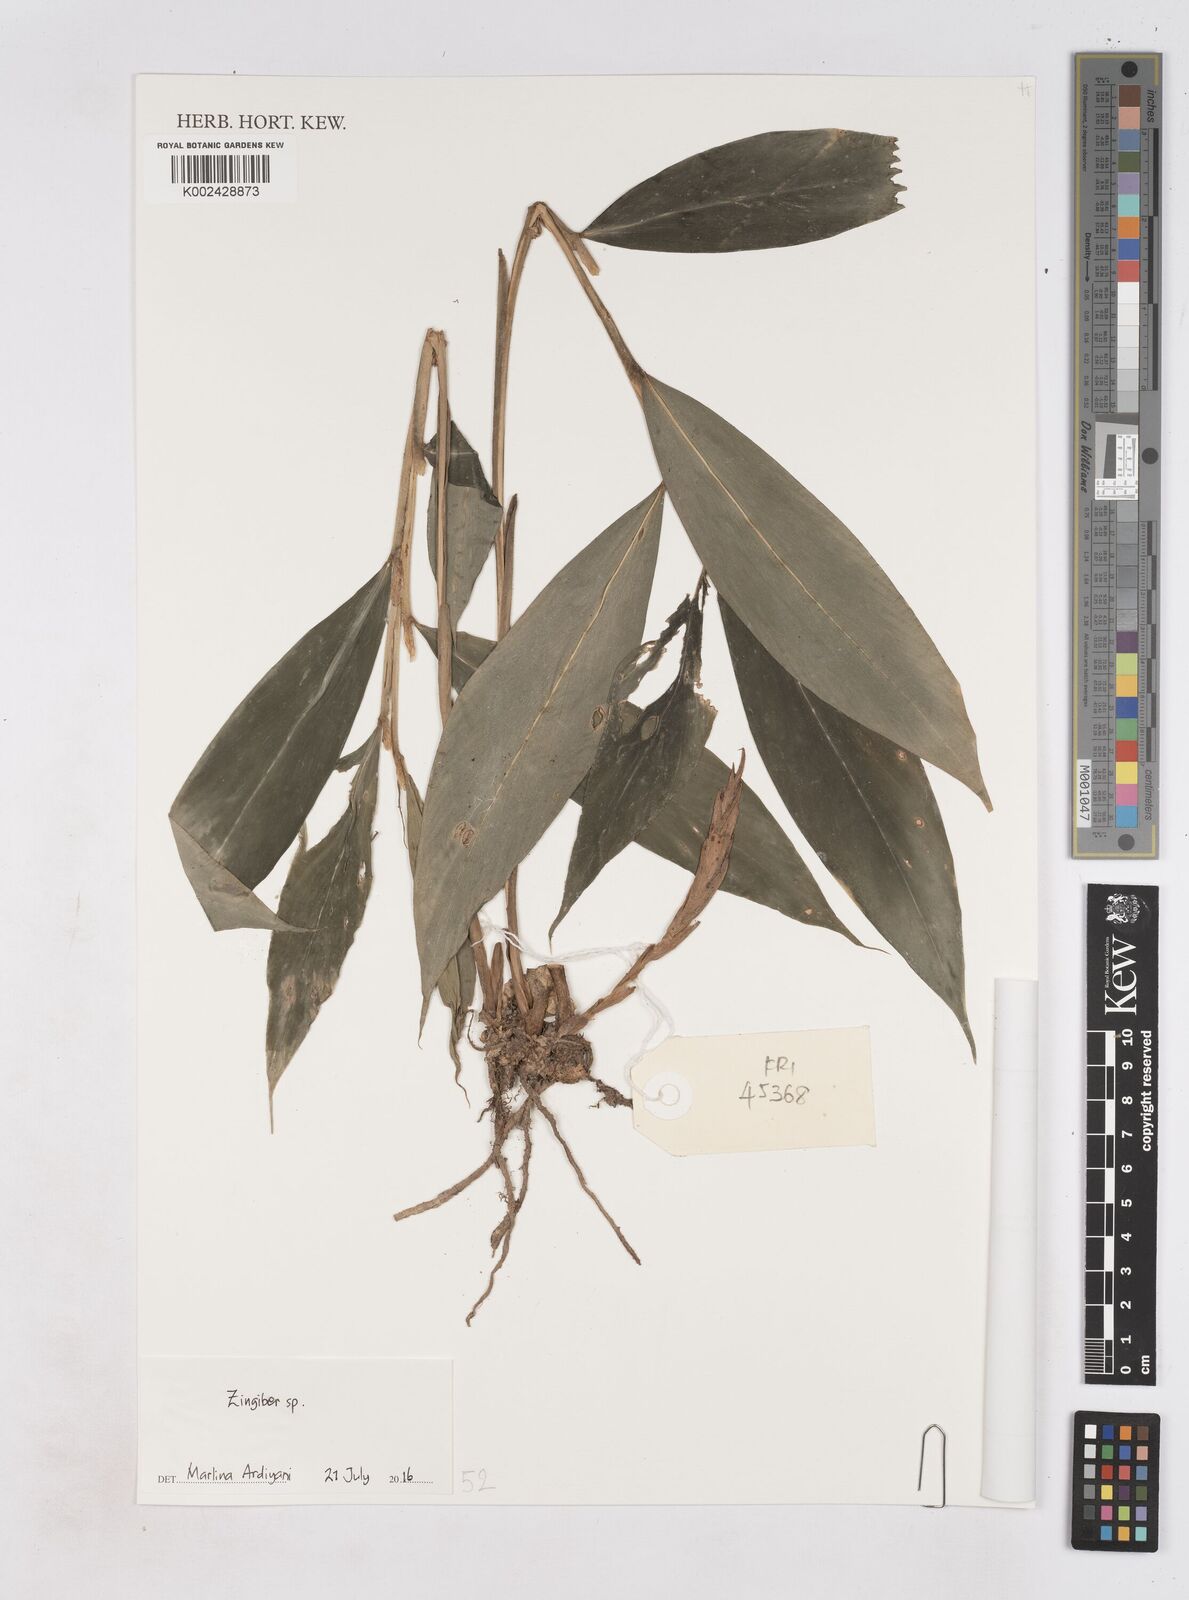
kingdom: Plantae
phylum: Tracheophyta
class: Liliopsida
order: Zingiberales
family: Zingiberaceae
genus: Zingiber
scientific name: Zingiber
